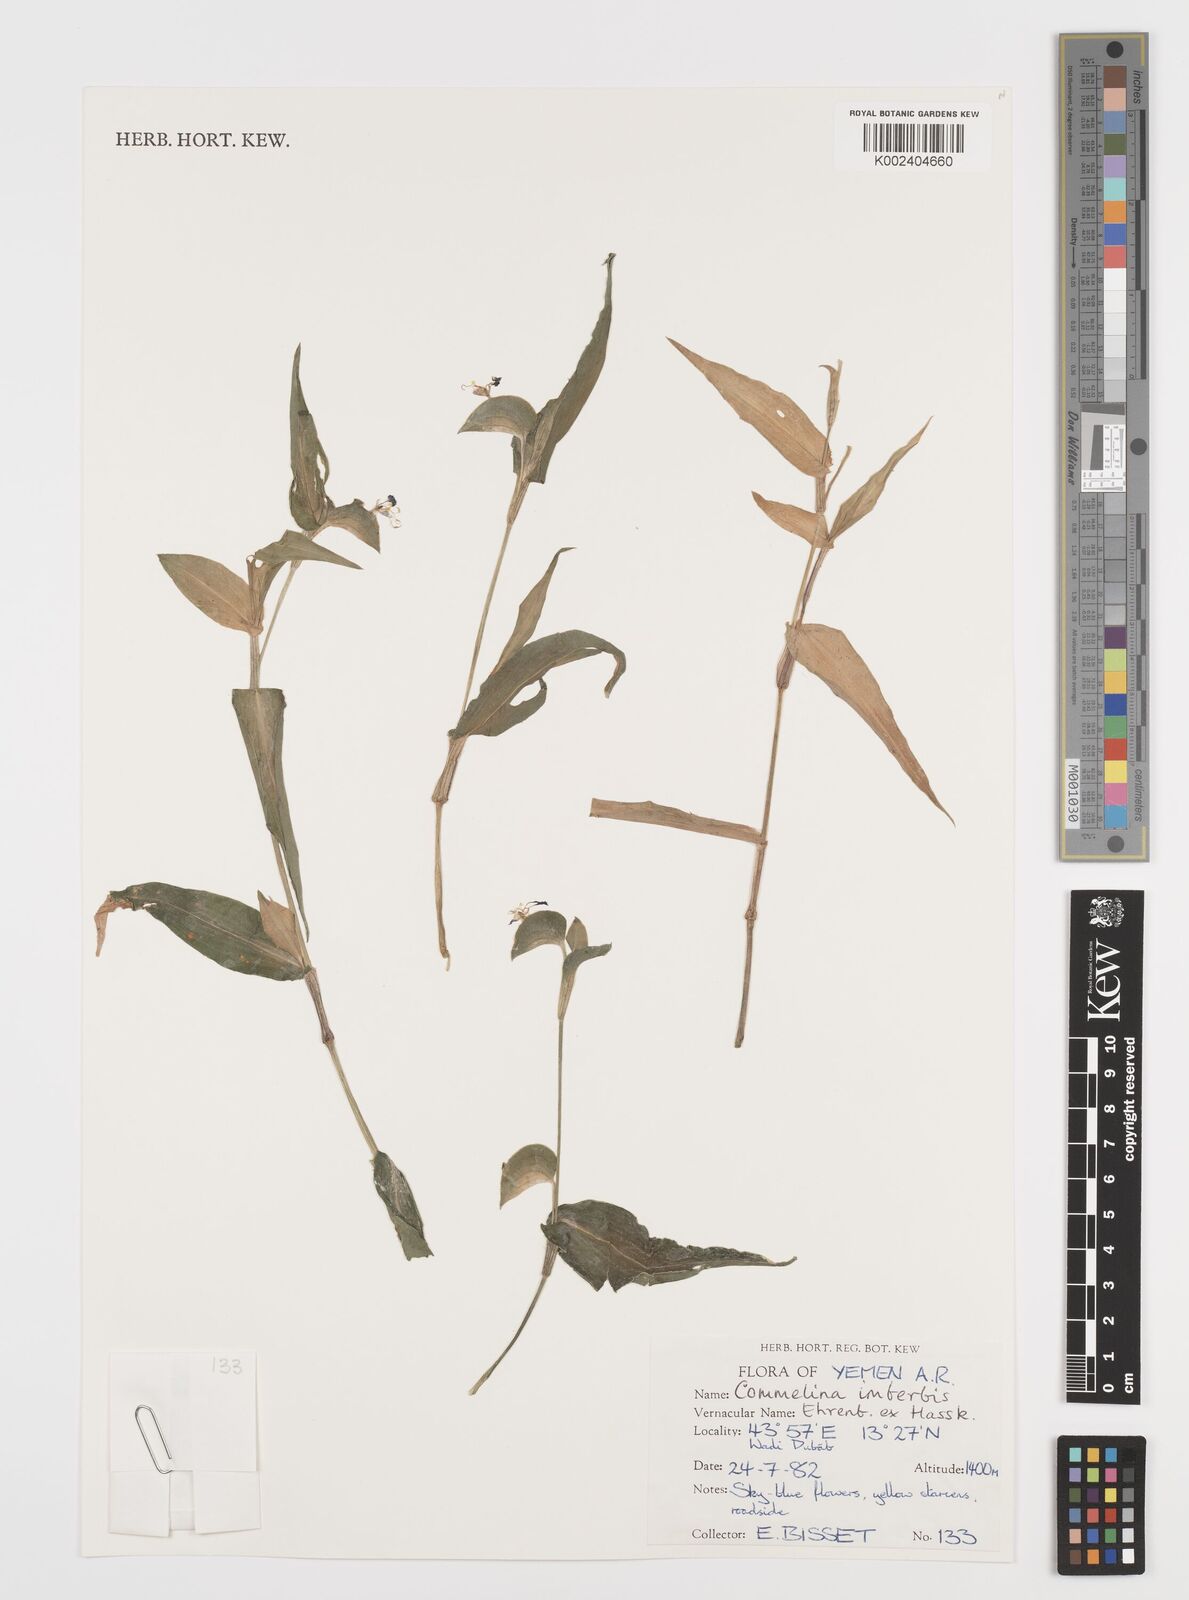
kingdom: Plantae
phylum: Tracheophyta
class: Liliopsida
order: Commelinales
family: Commelinaceae
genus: Commelina
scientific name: Commelina imberbis
